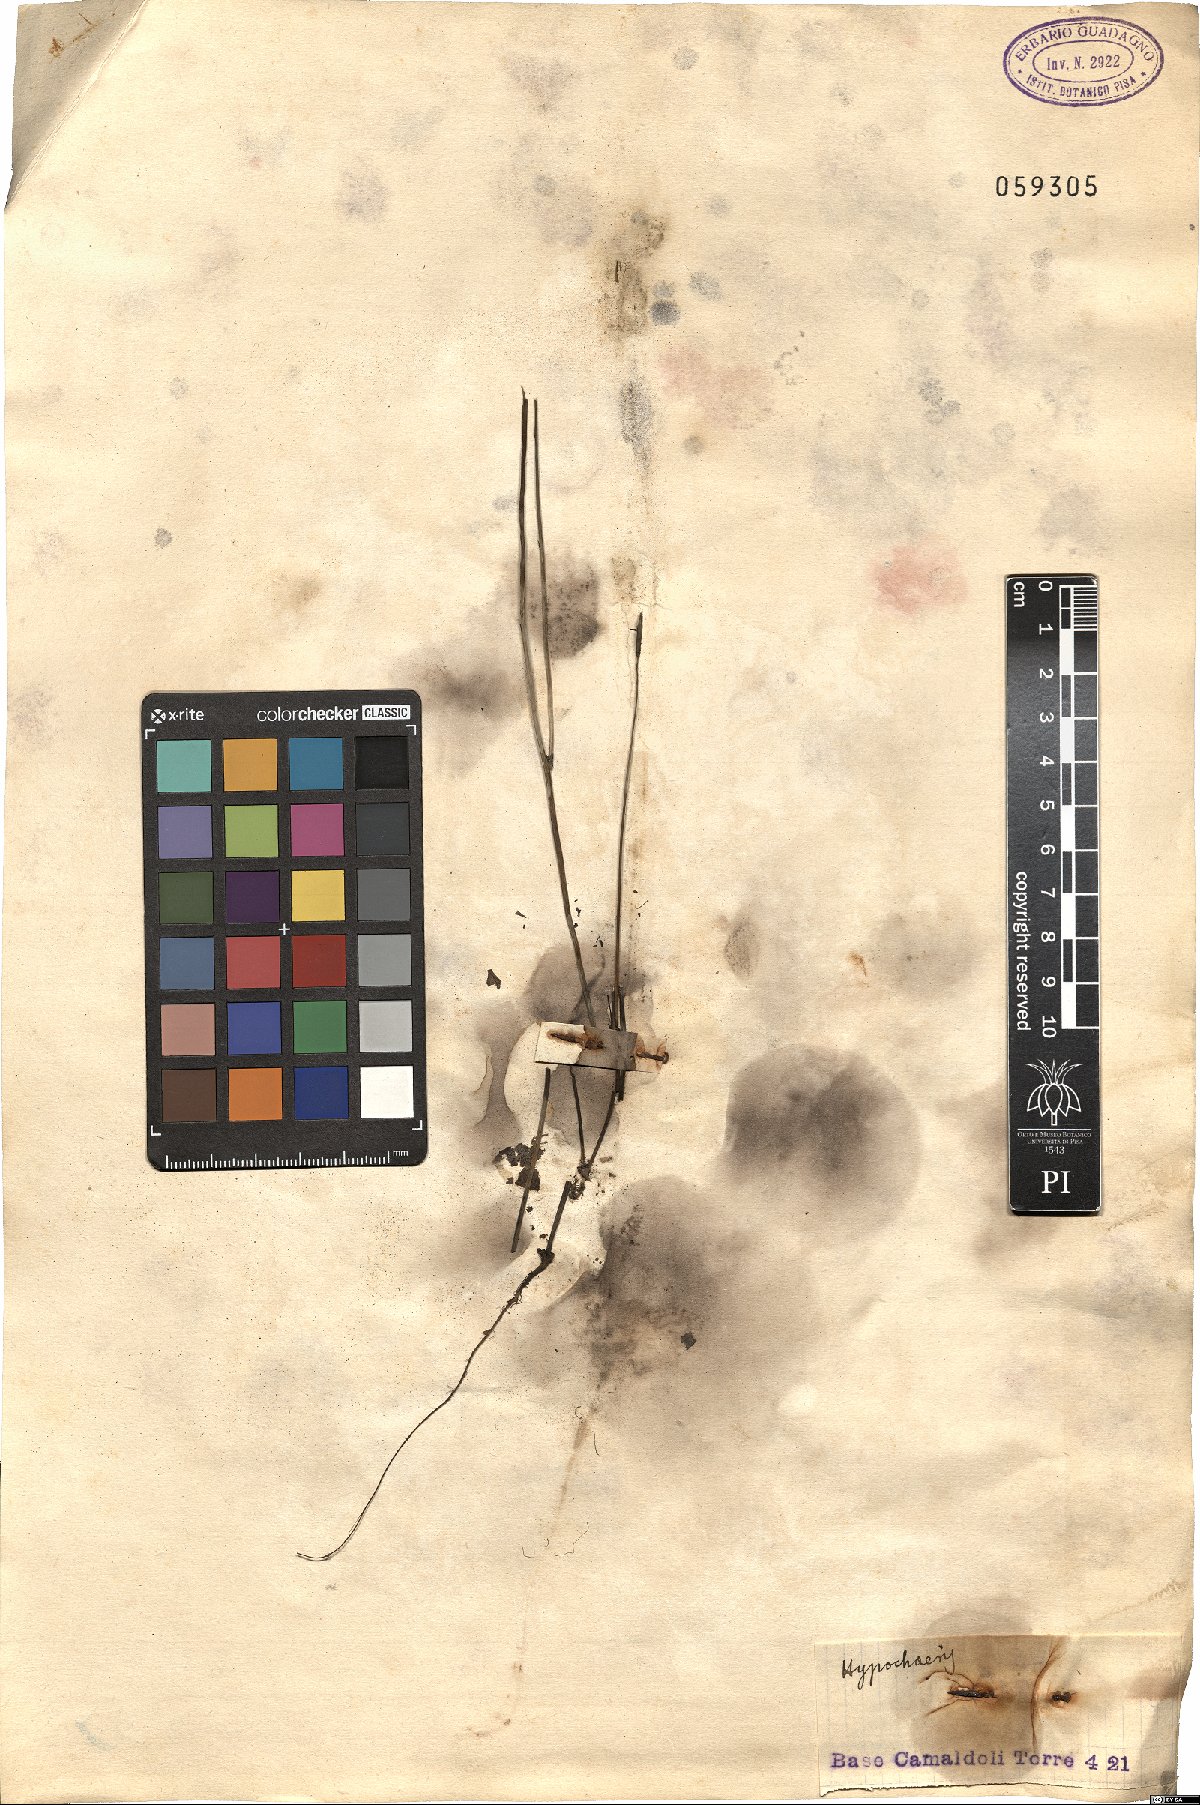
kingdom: Plantae
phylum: Tracheophyta
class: Magnoliopsida
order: Asterales
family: Asteraceae
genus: Hypochaeris
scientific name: Hypochaeris
